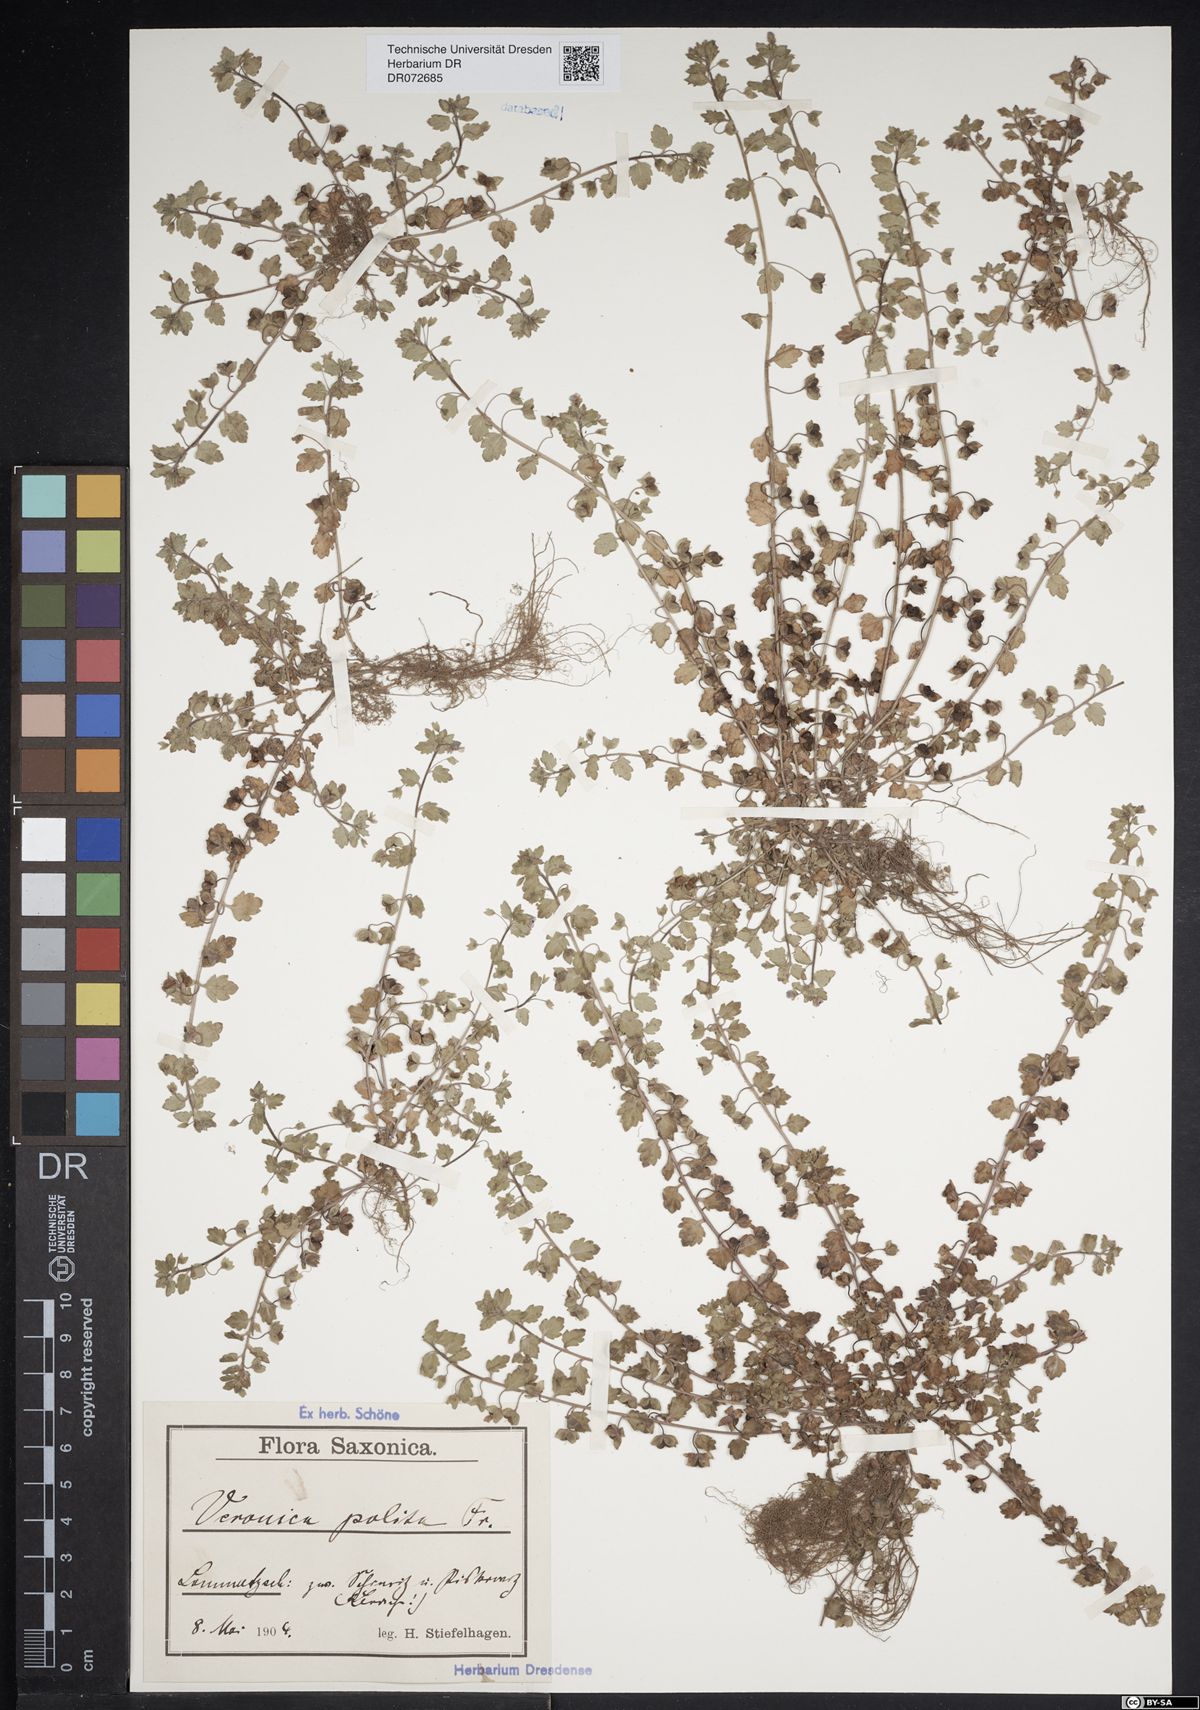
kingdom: Plantae
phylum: Tracheophyta
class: Magnoliopsida
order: Lamiales
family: Plantaginaceae
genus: Veronica
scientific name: Veronica polita
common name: Grey field-speedwell
